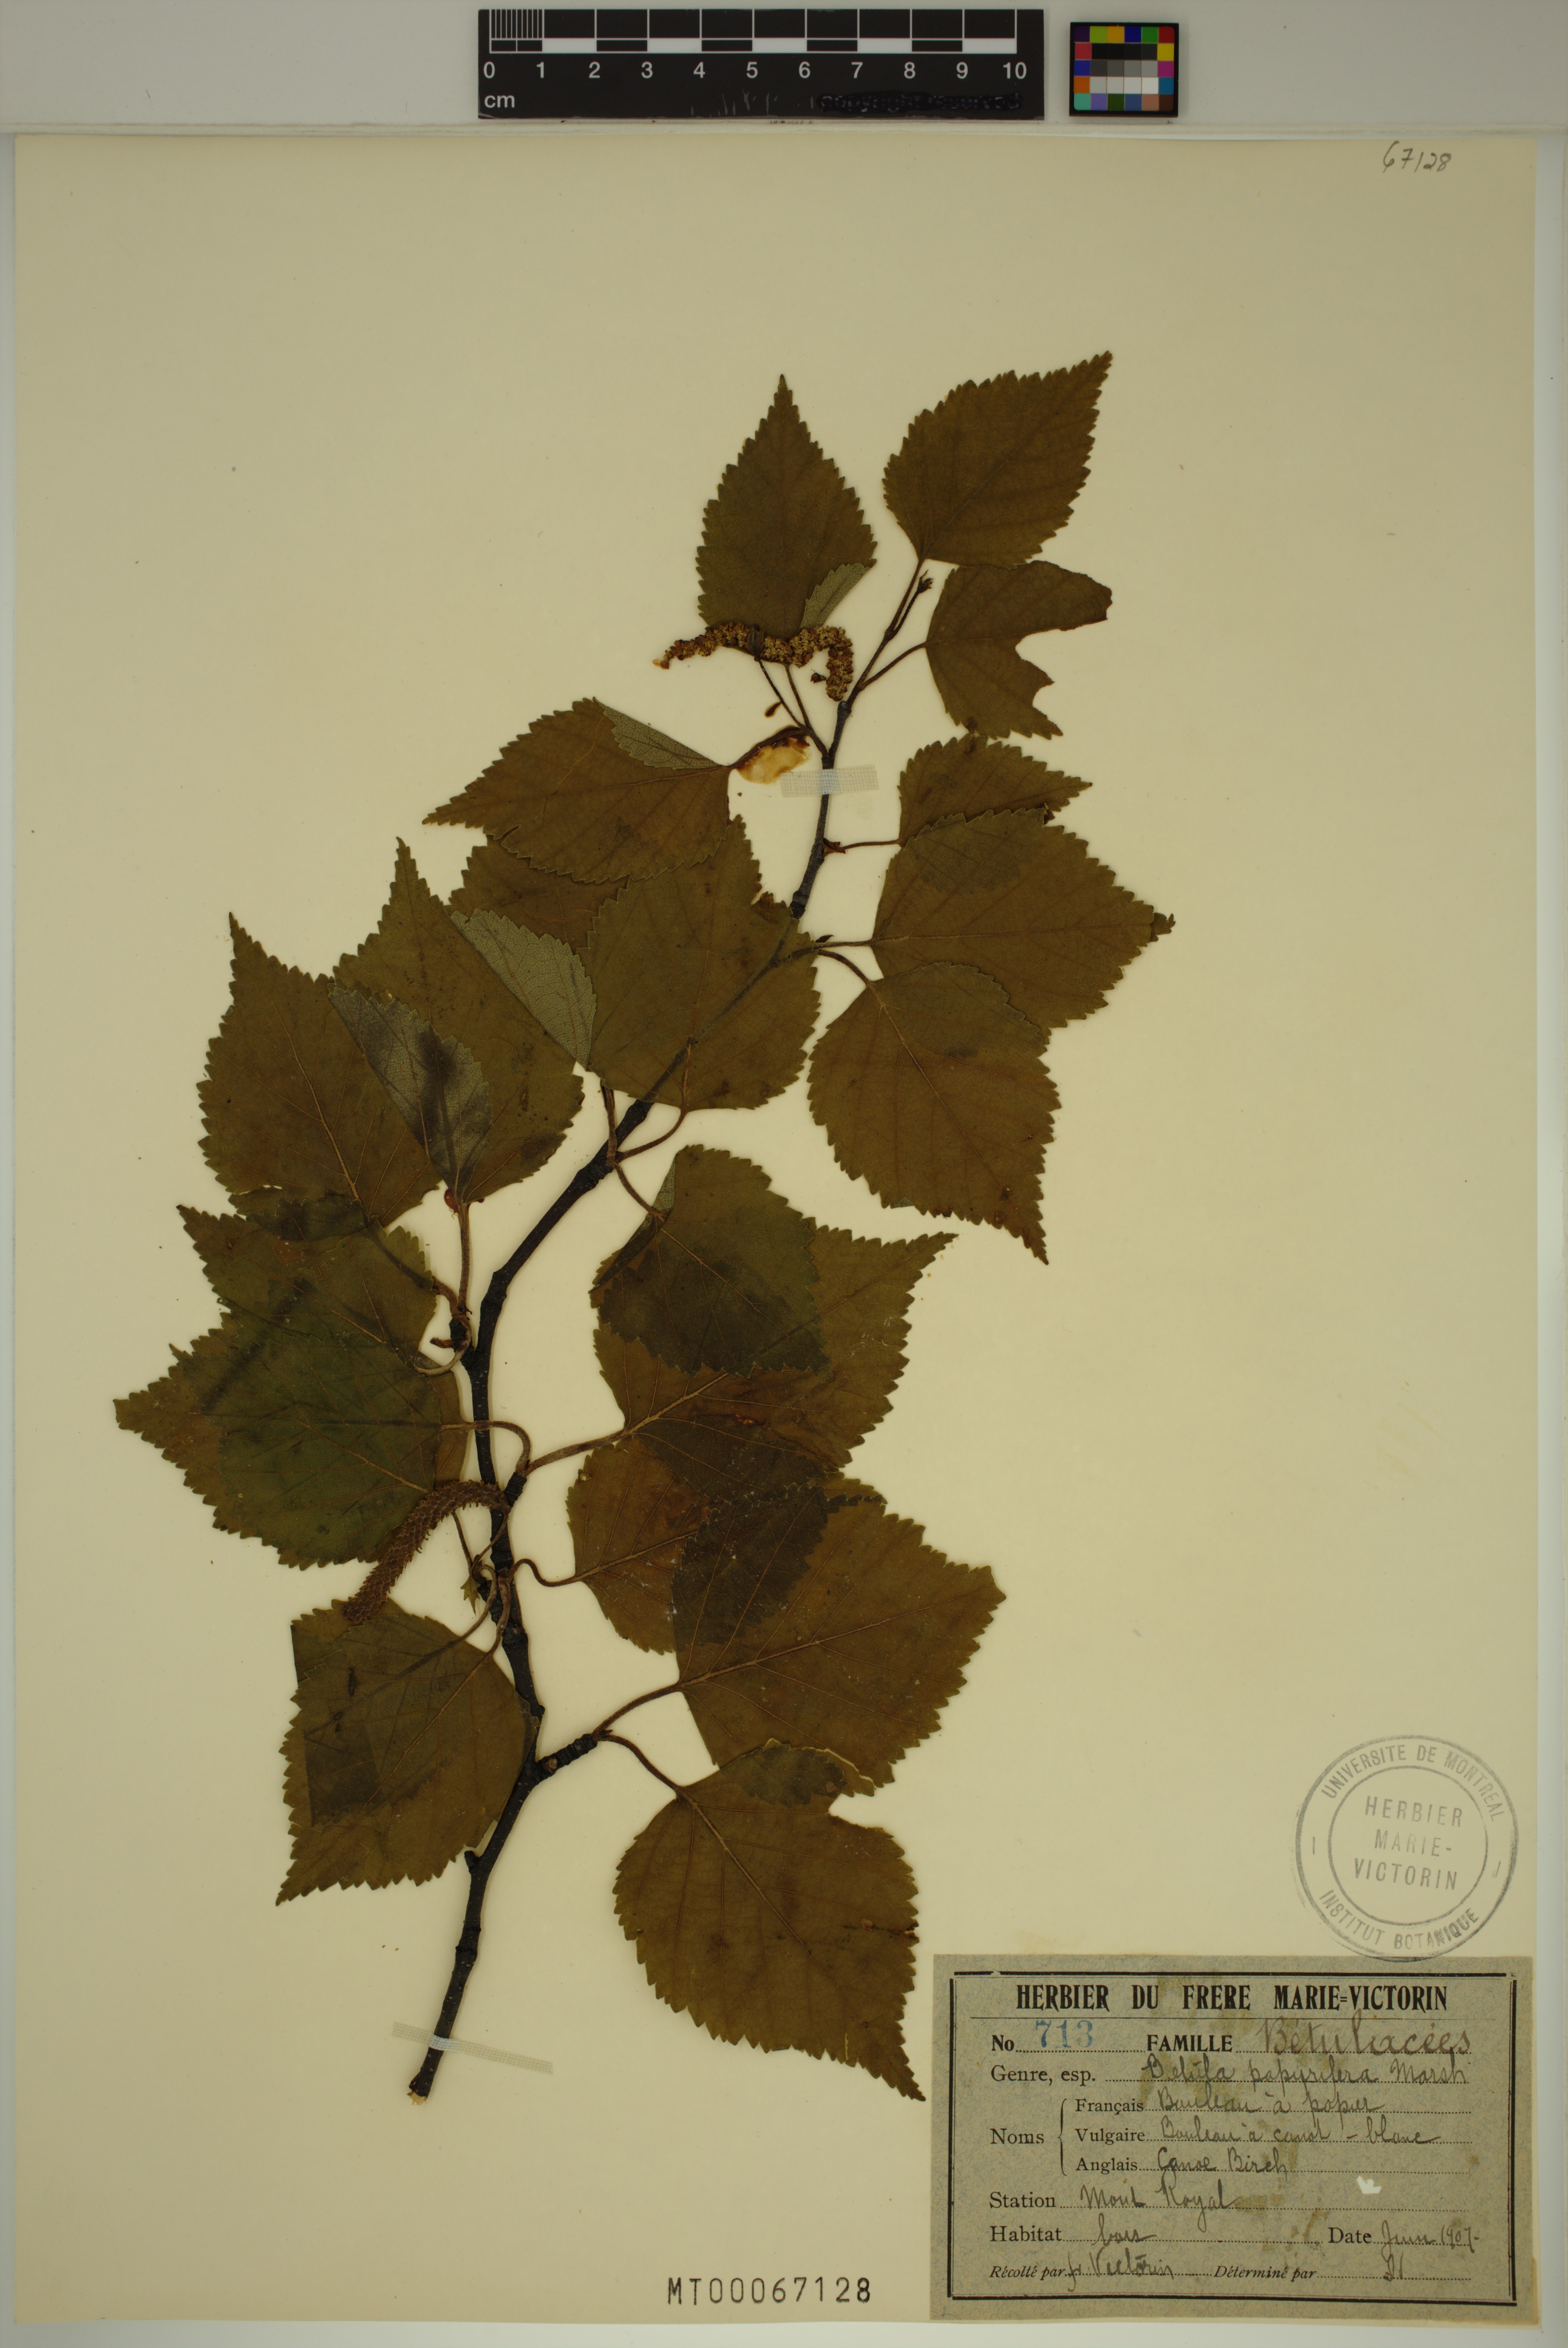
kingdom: Plantae
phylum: Tracheophyta
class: Magnoliopsida
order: Fagales
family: Betulaceae
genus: Betula
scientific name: Betula papyrifera
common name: Paper birch
